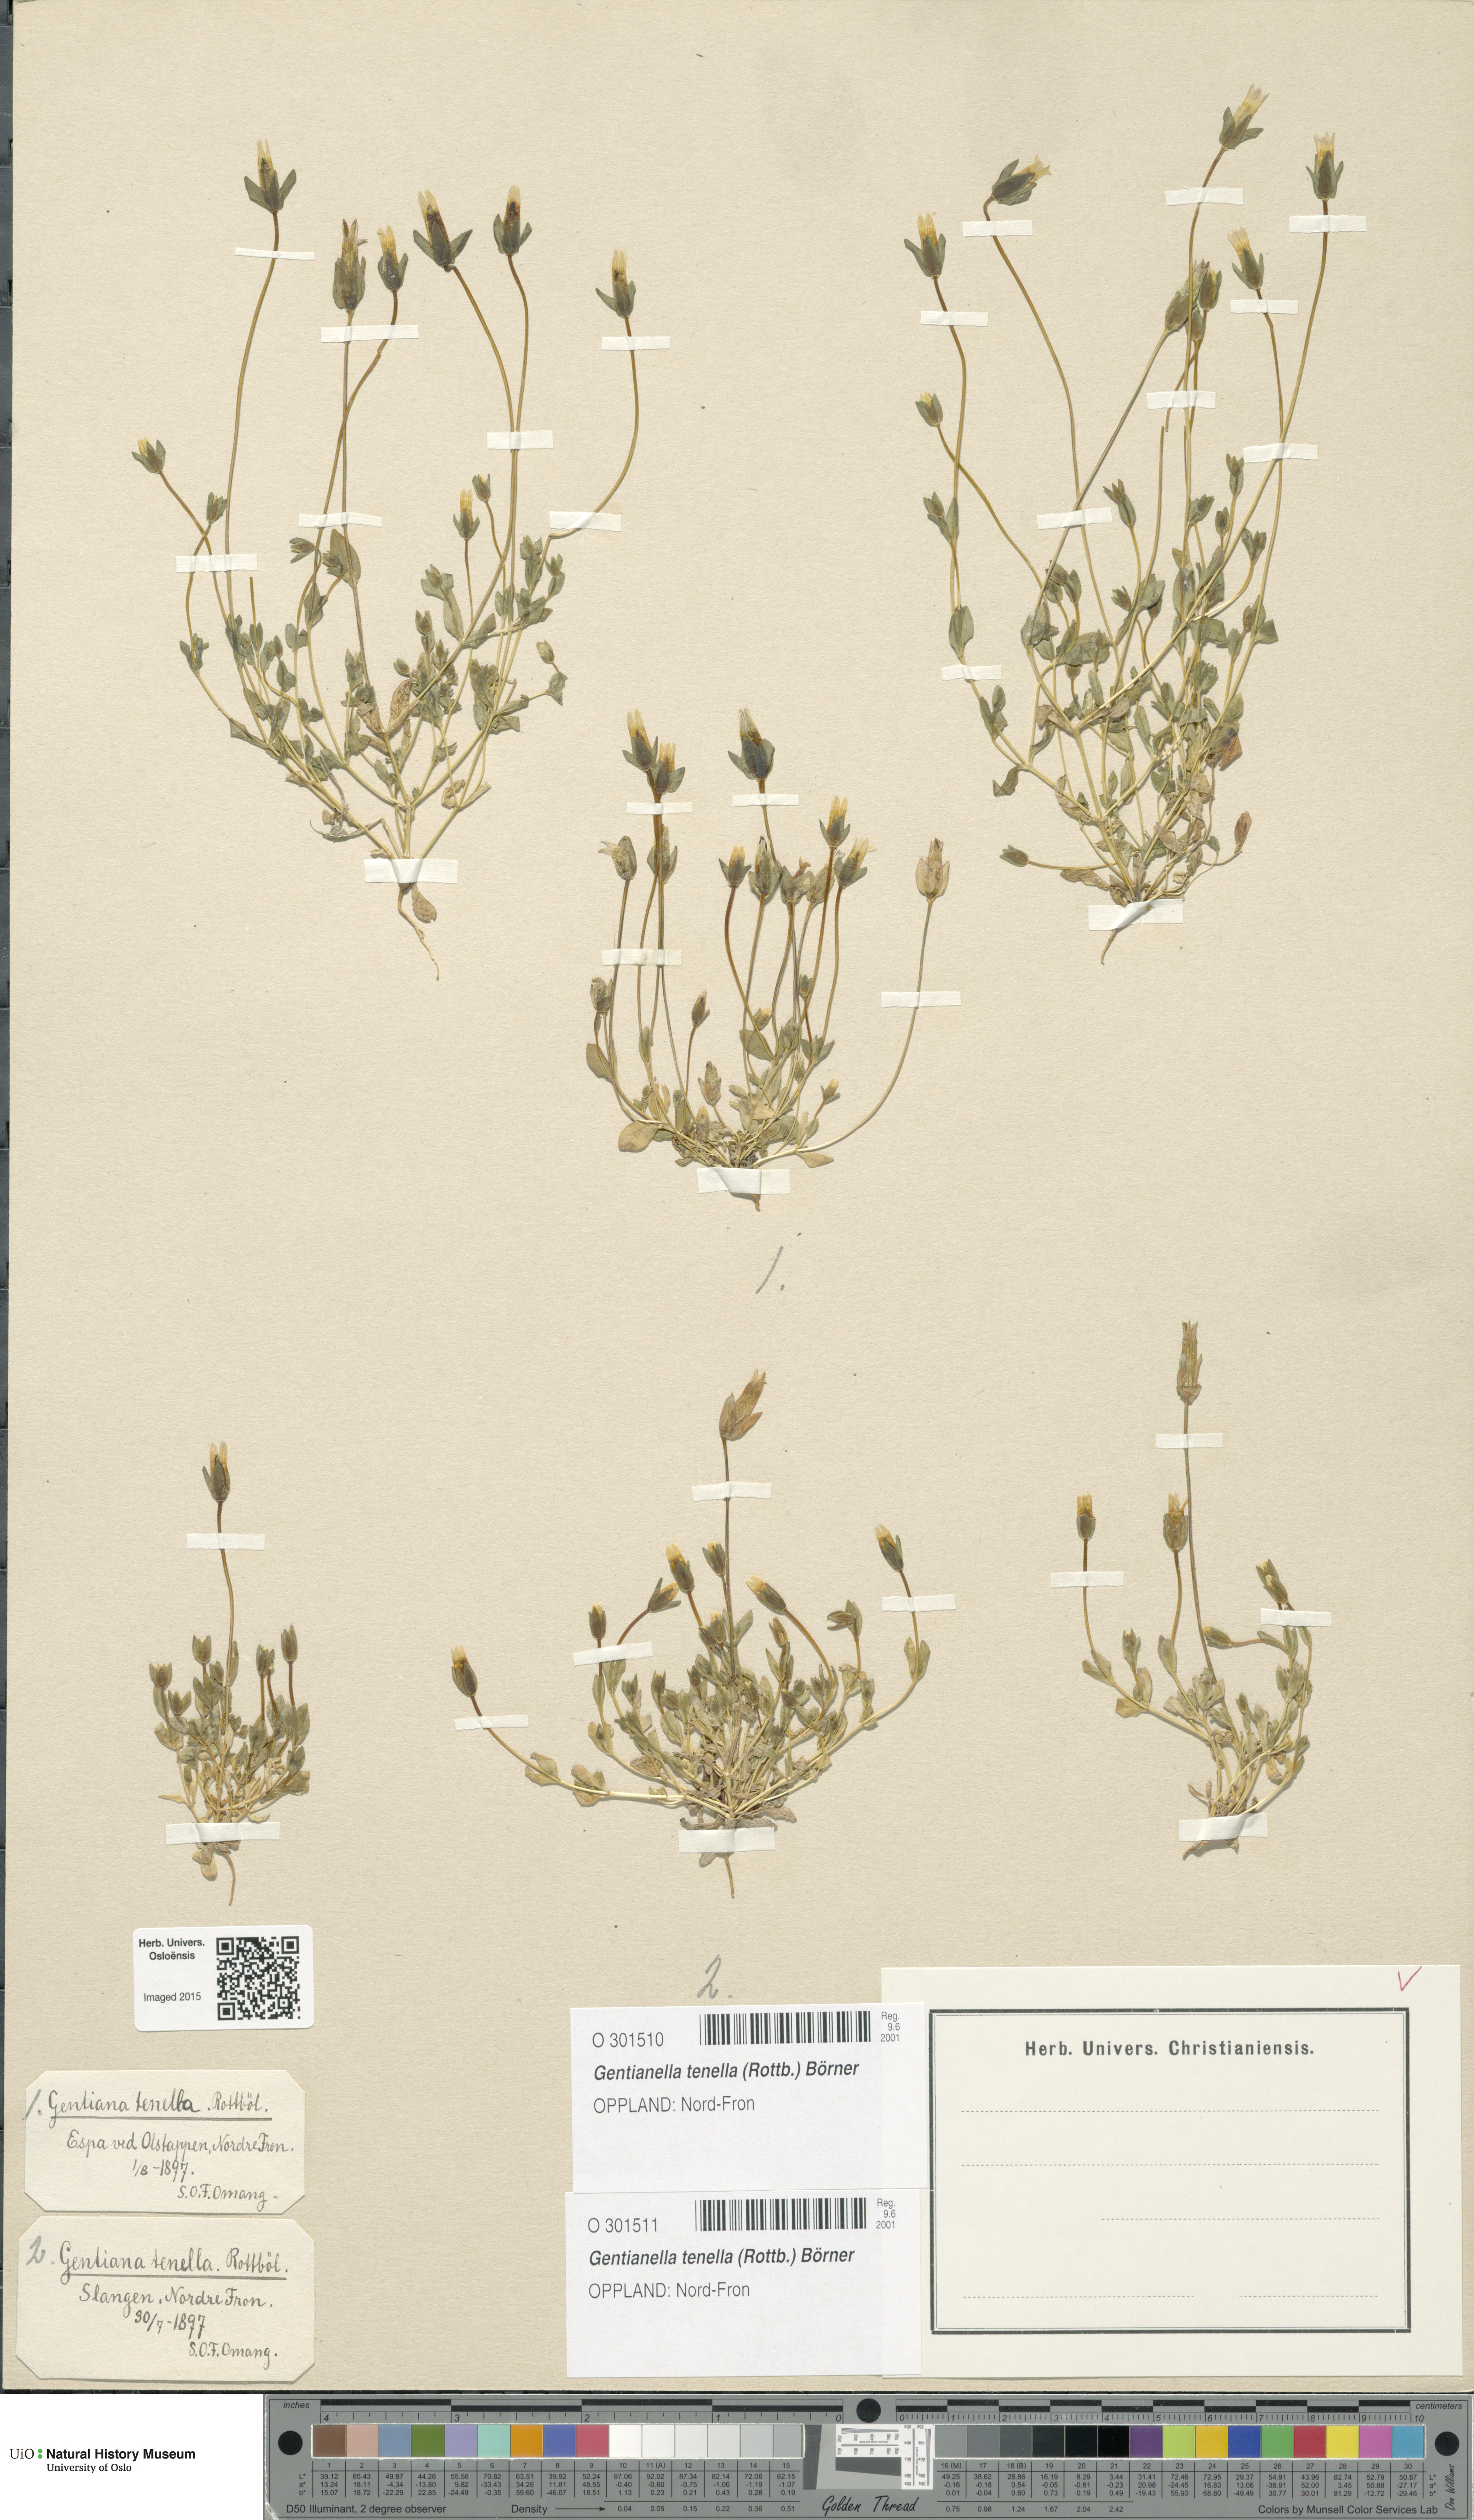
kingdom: Plantae
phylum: Tracheophyta
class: Magnoliopsida
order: Gentianales
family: Gentianaceae
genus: Comastoma
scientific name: Comastoma tenellum
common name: Dane's dwarf gentian
